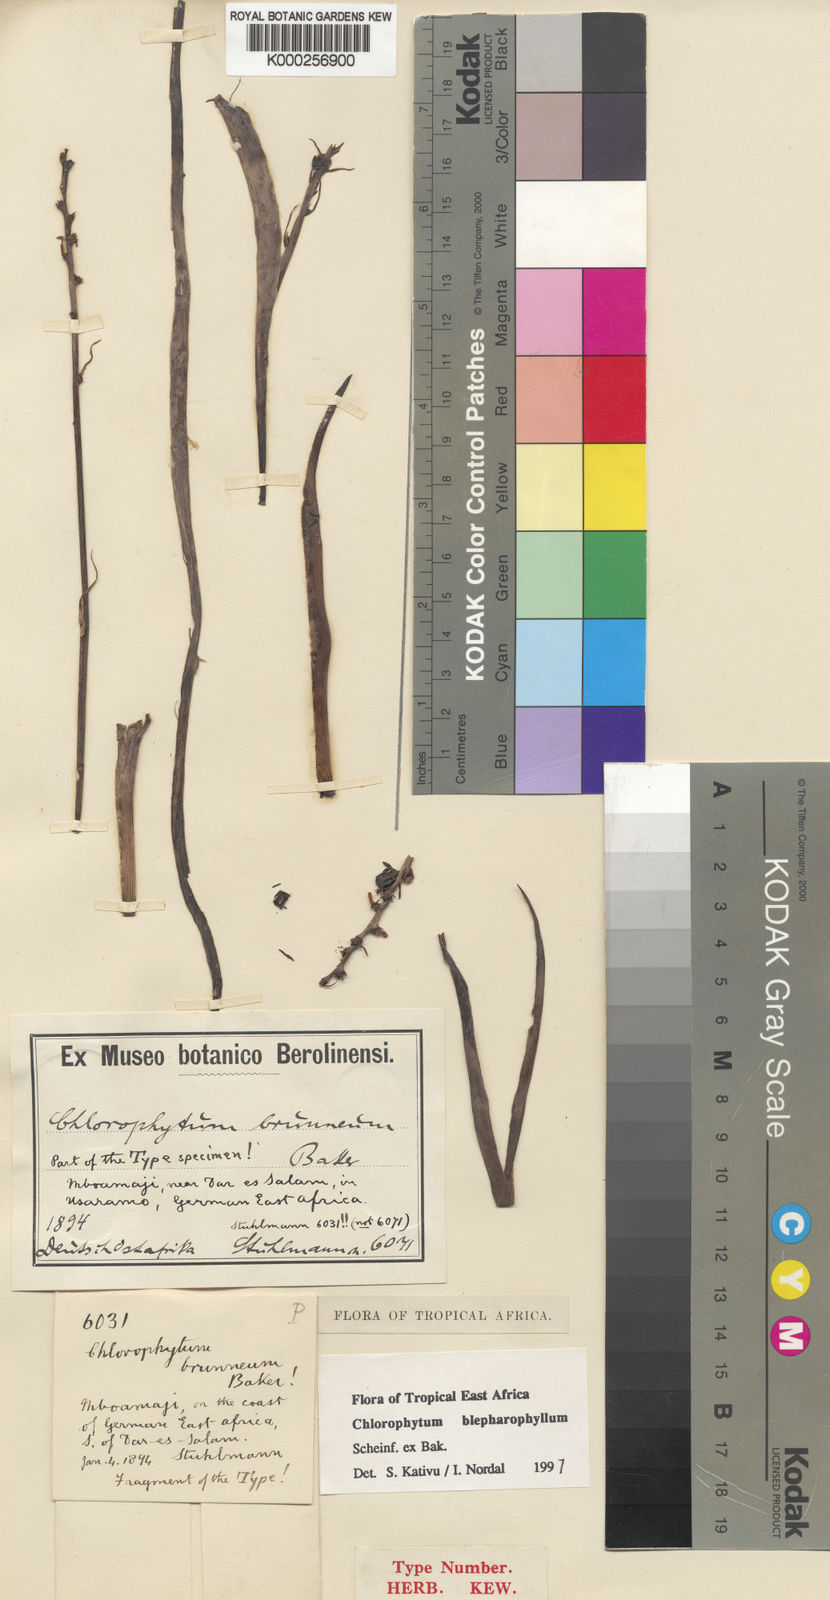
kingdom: Plantae
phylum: Tracheophyta
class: Liliopsida
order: Asparagales
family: Asparagaceae
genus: Chlorophytum
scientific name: Chlorophytum blepharophyllum
